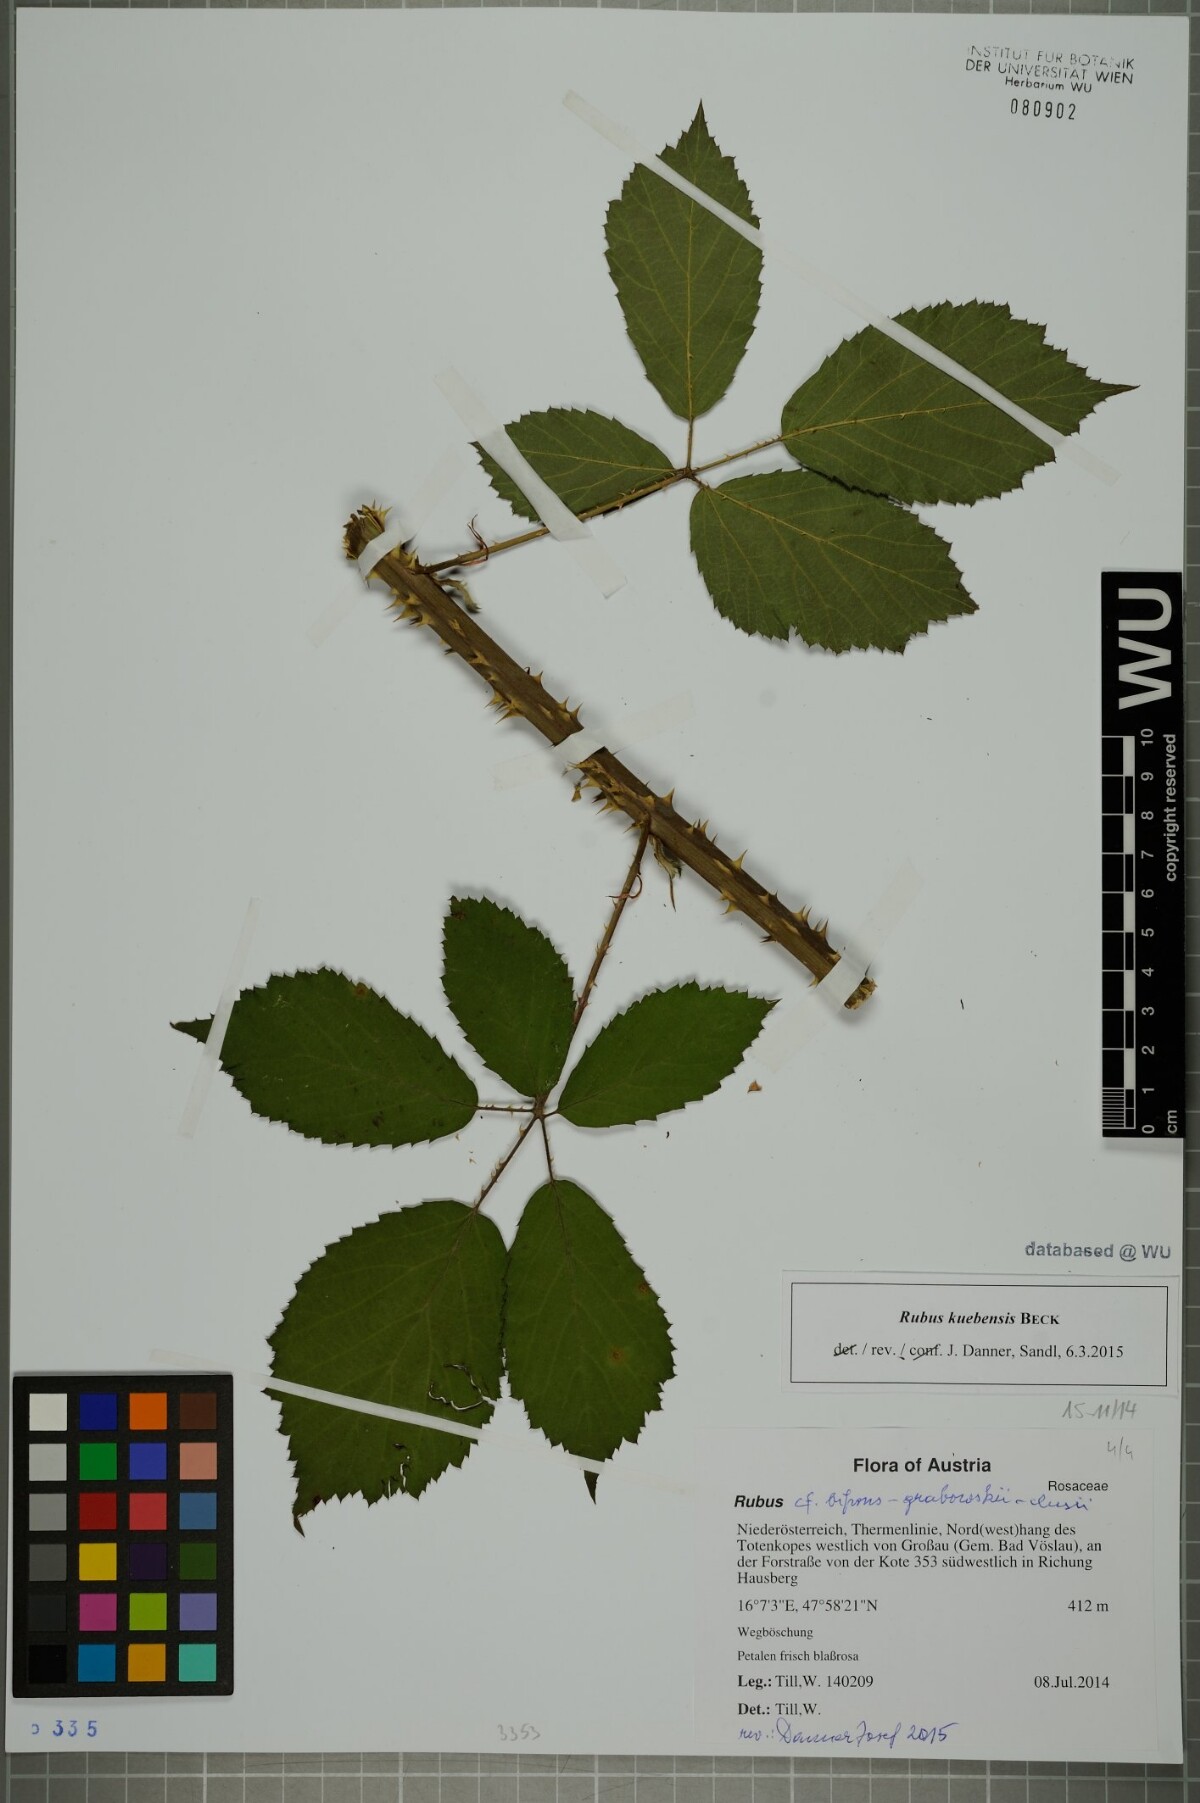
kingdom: Plantae
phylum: Tracheophyta
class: Magnoliopsida
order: Rosales
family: Rosaceae
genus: Rubus
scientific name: Rubus kuebensis
